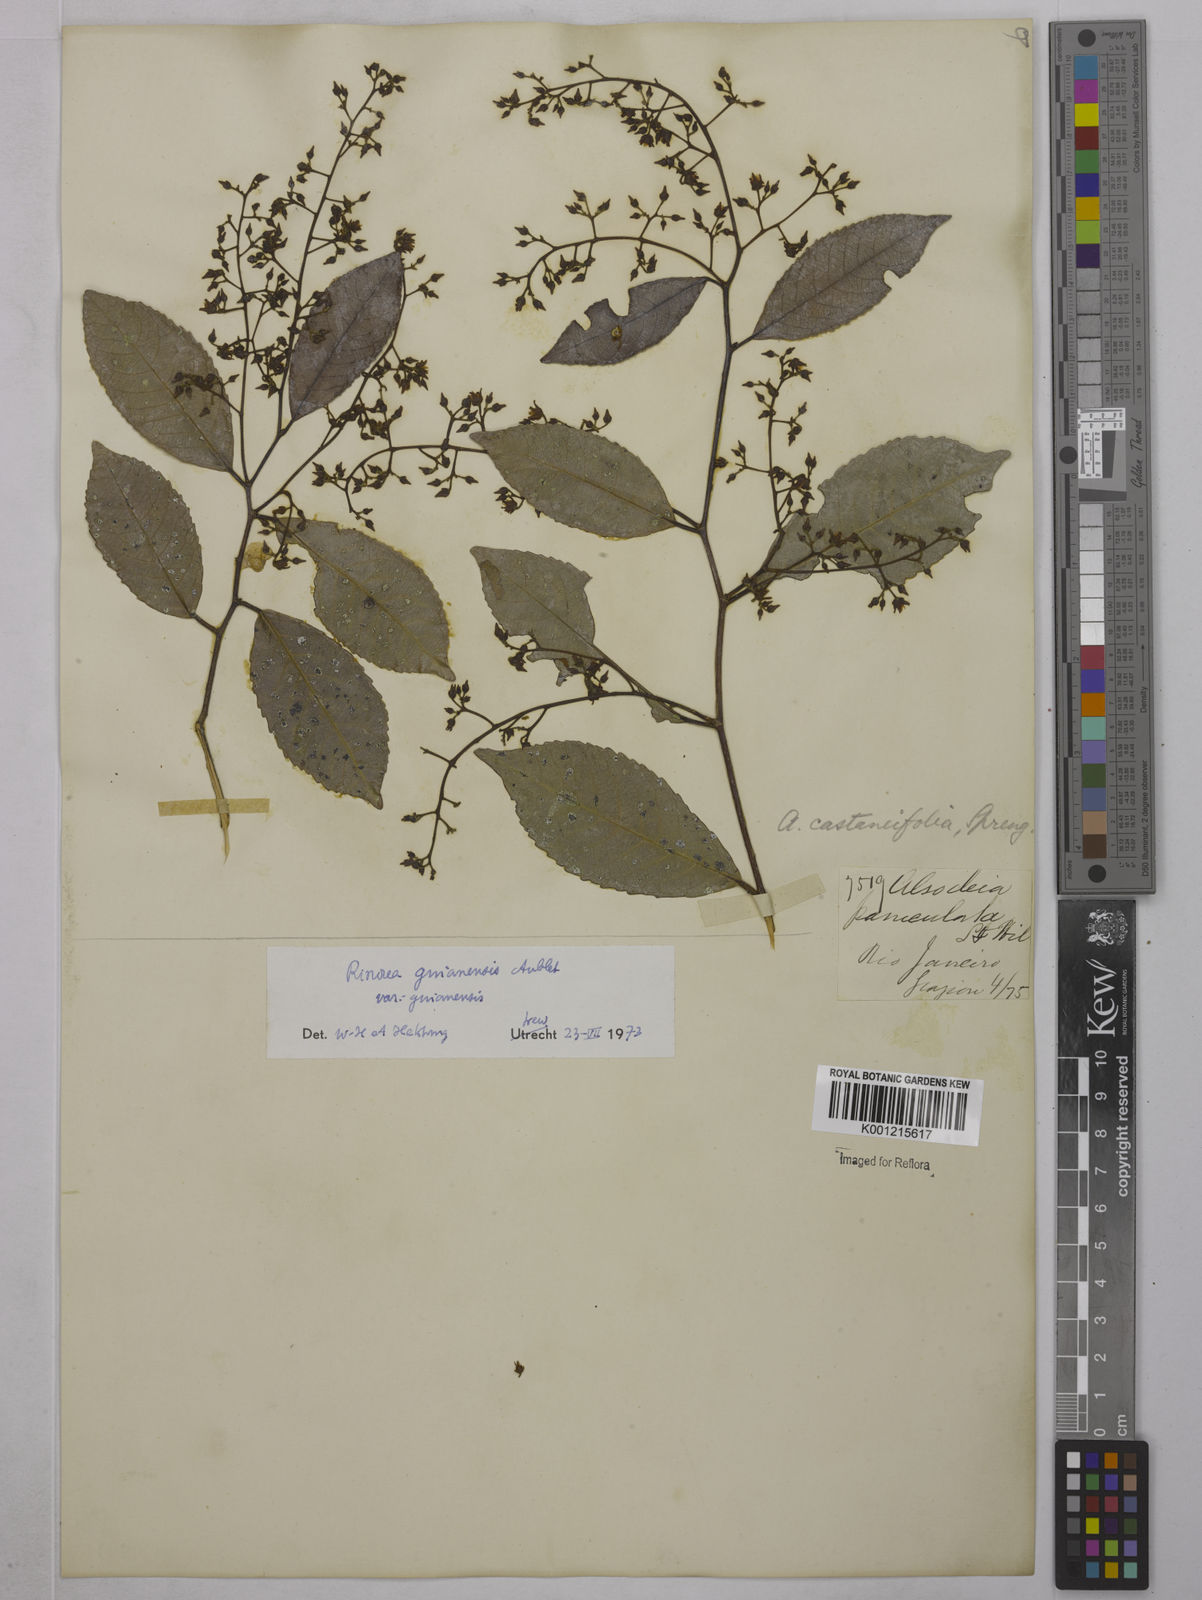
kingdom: Plantae
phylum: Tracheophyta
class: Magnoliopsida
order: Malpighiales
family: Violaceae
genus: Rinorea
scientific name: Rinorea guianensis
